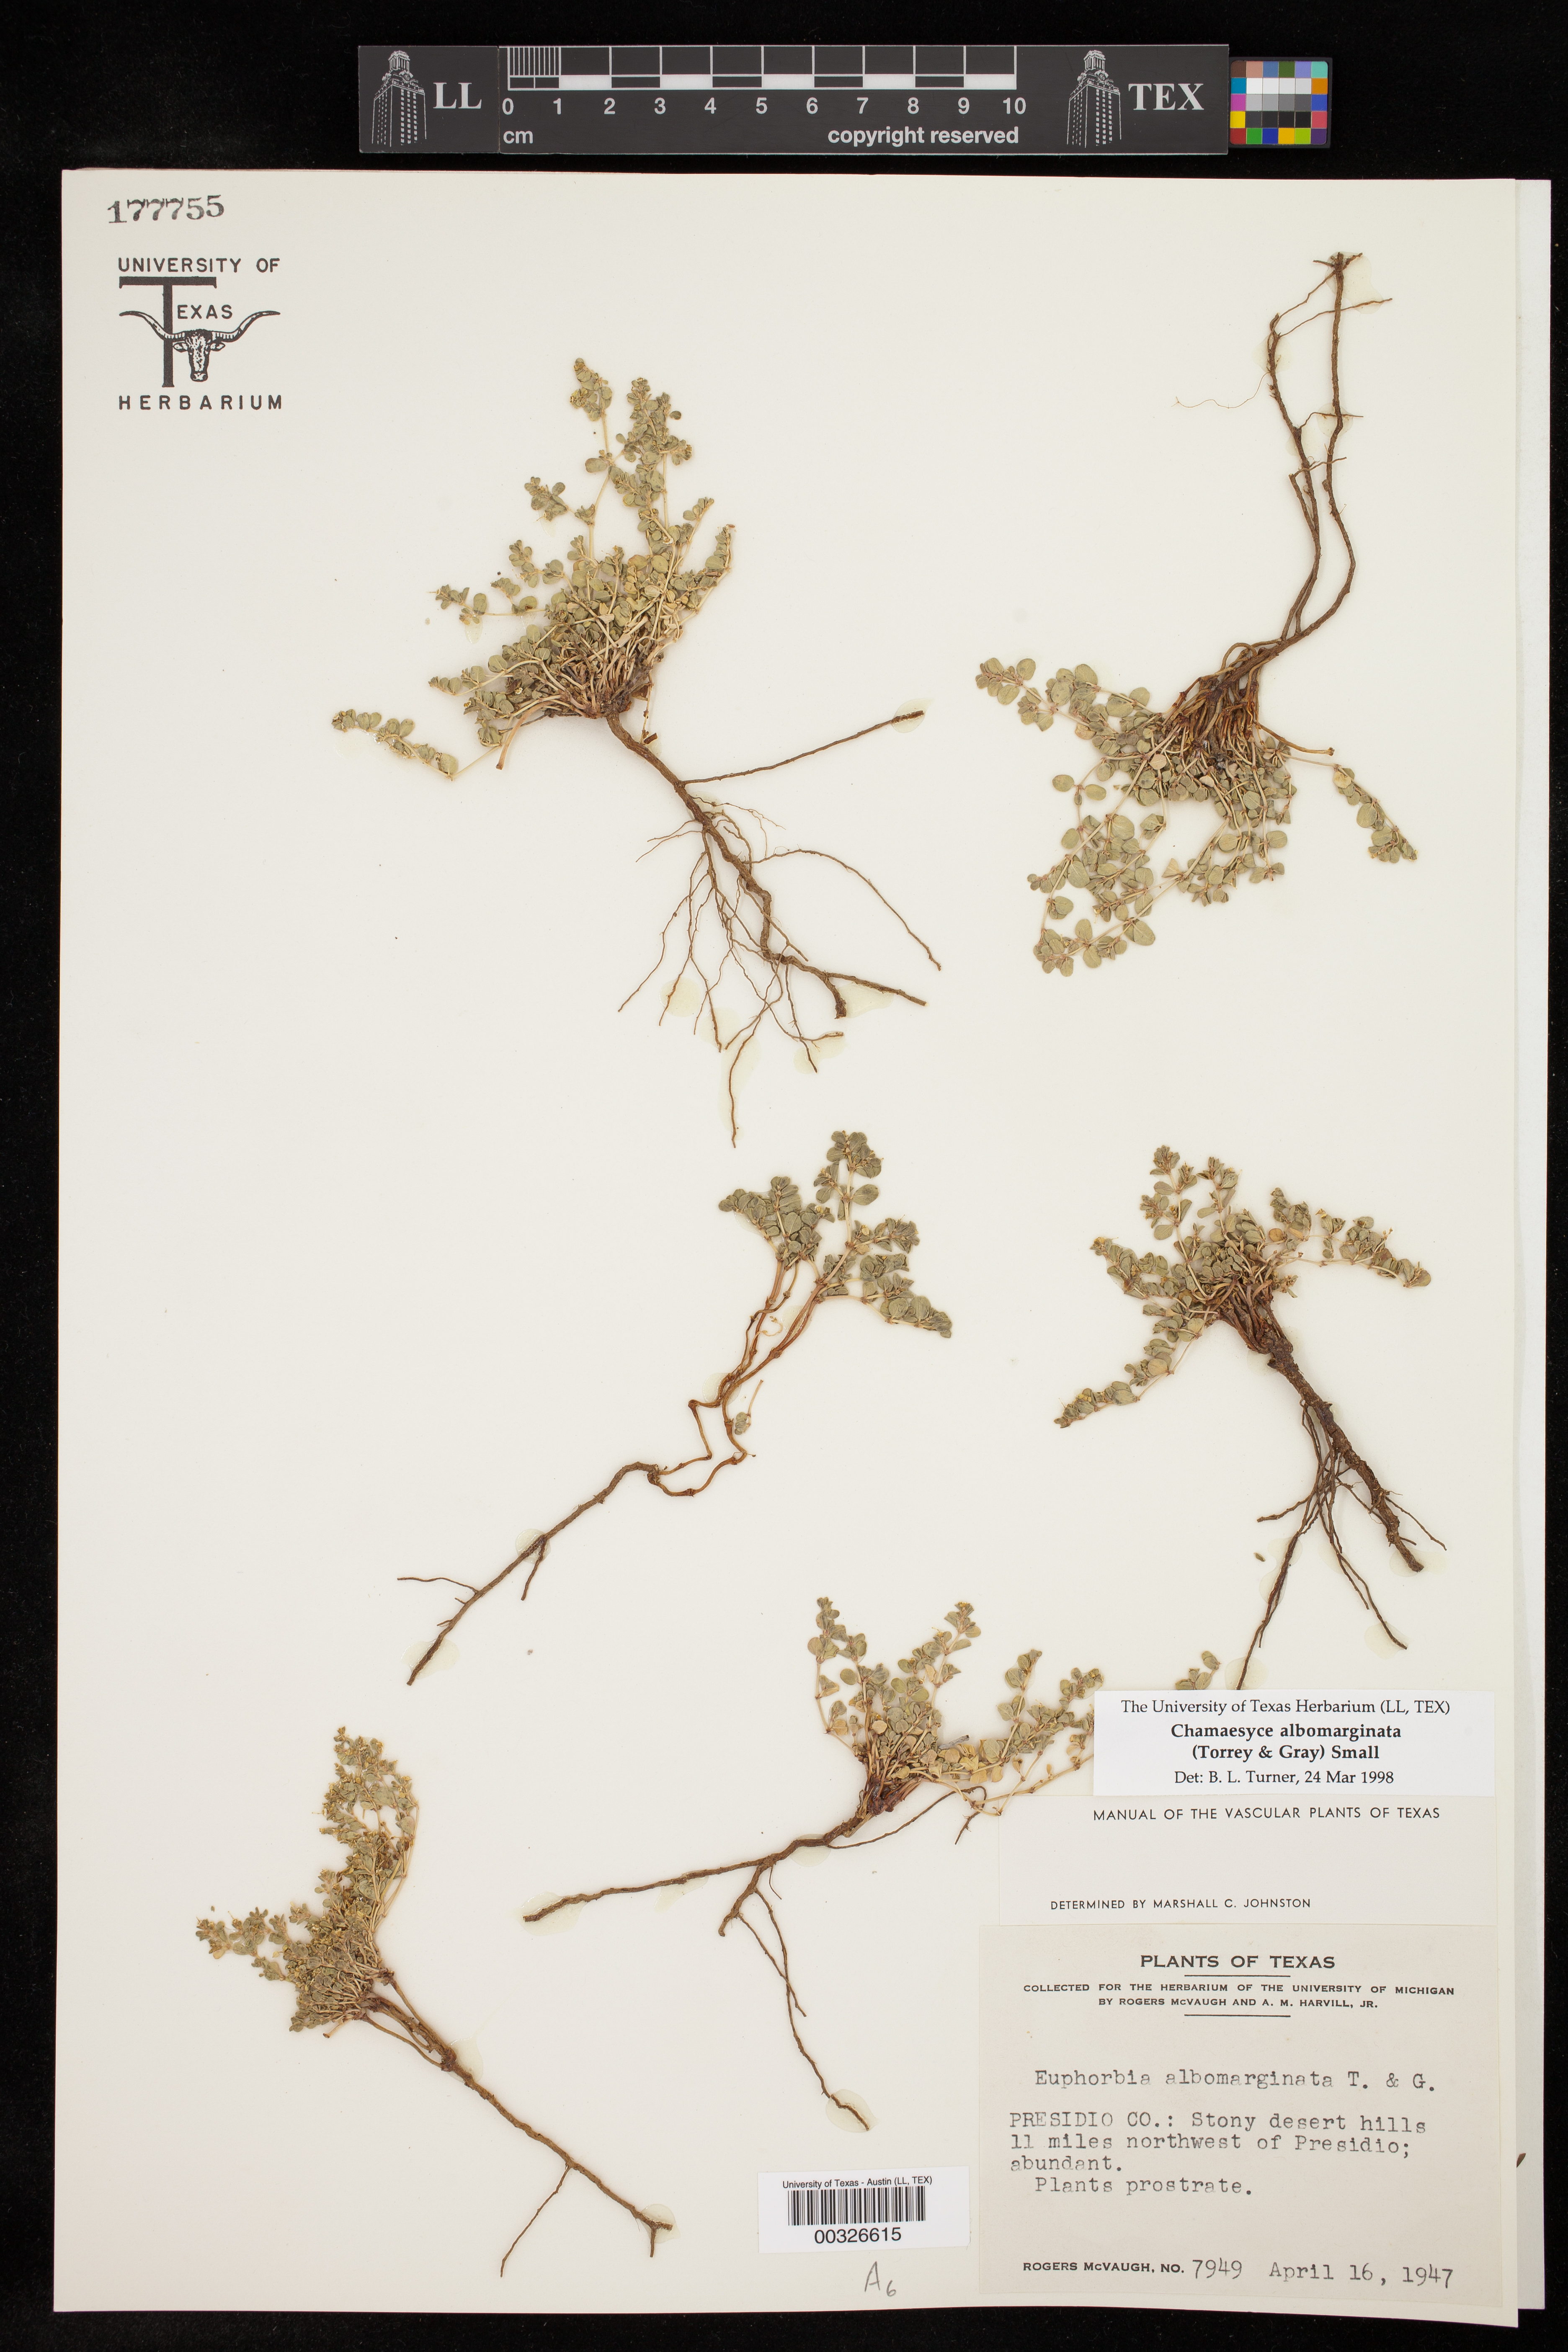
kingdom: Plantae
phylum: Tracheophyta
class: Magnoliopsida
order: Malpighiales
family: Euphorbiaceae
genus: Euphorbia
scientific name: Euphorbia albomarginata
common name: Whitemargin sandmat
